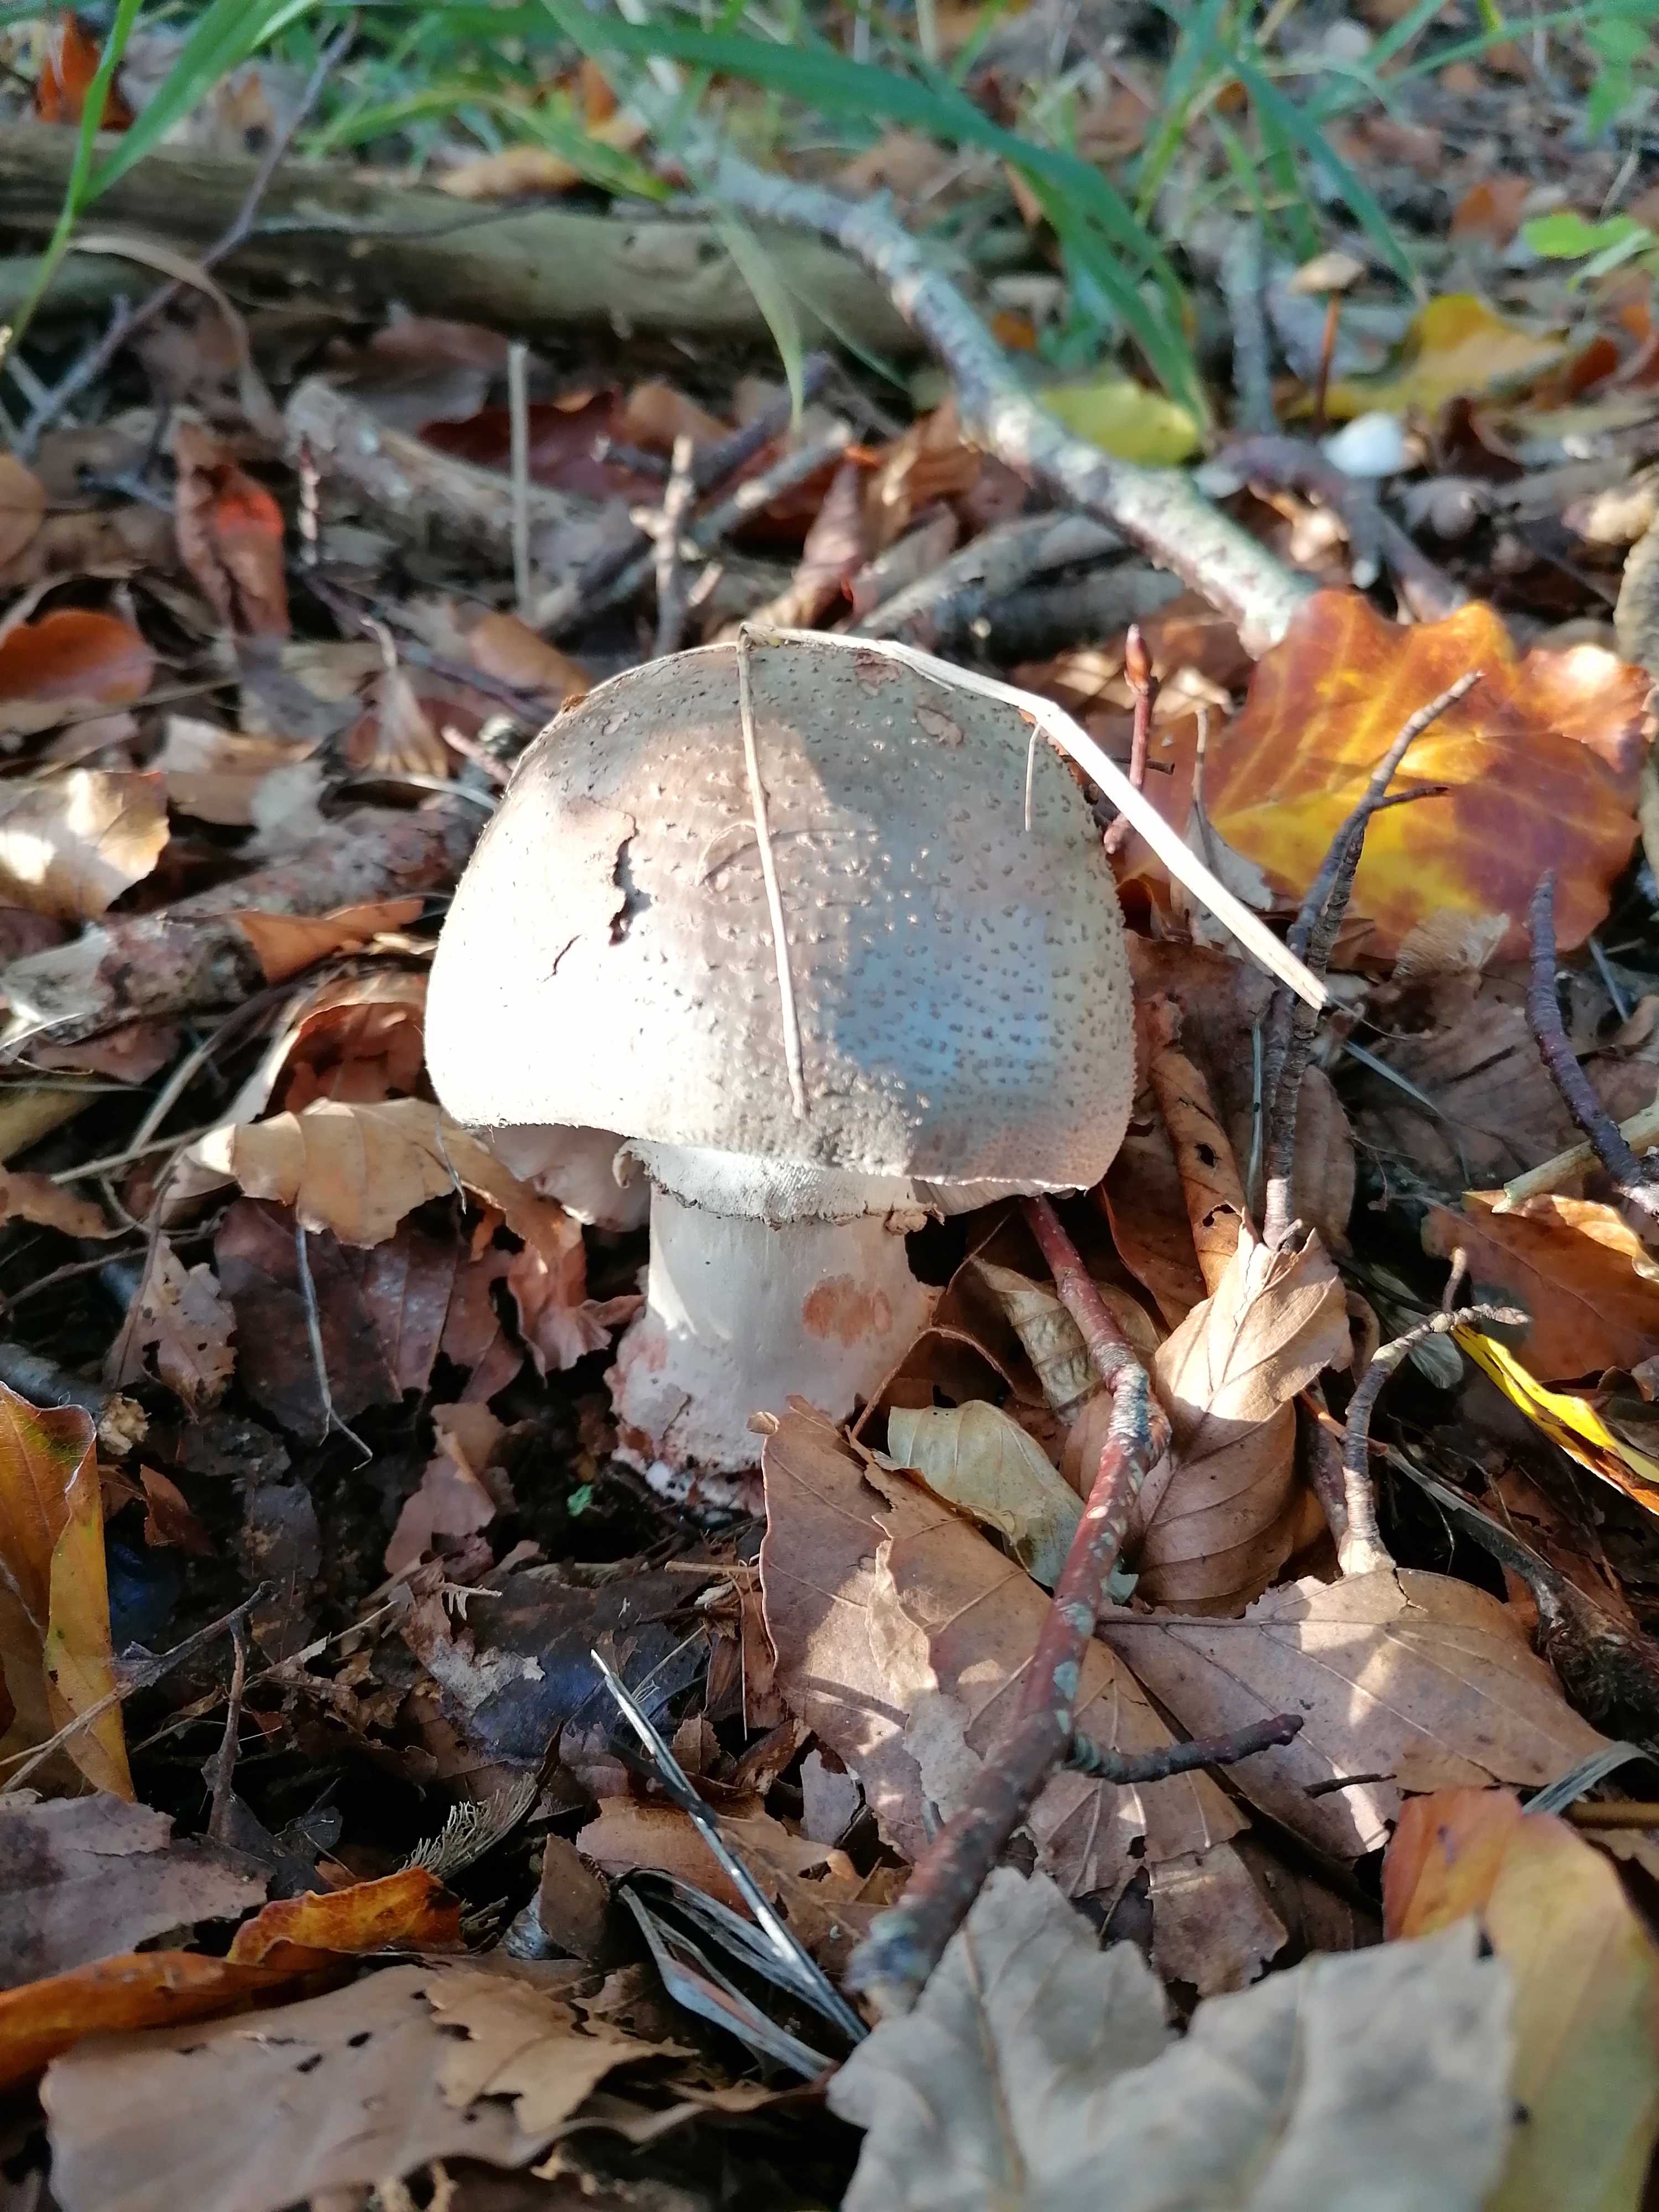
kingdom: Fungi
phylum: Basidiomycota
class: Agaricomycetes
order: Agaricales
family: Amanitaceae
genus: Amanita
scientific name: Amanita rubescens
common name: rødmende fluesvamp
